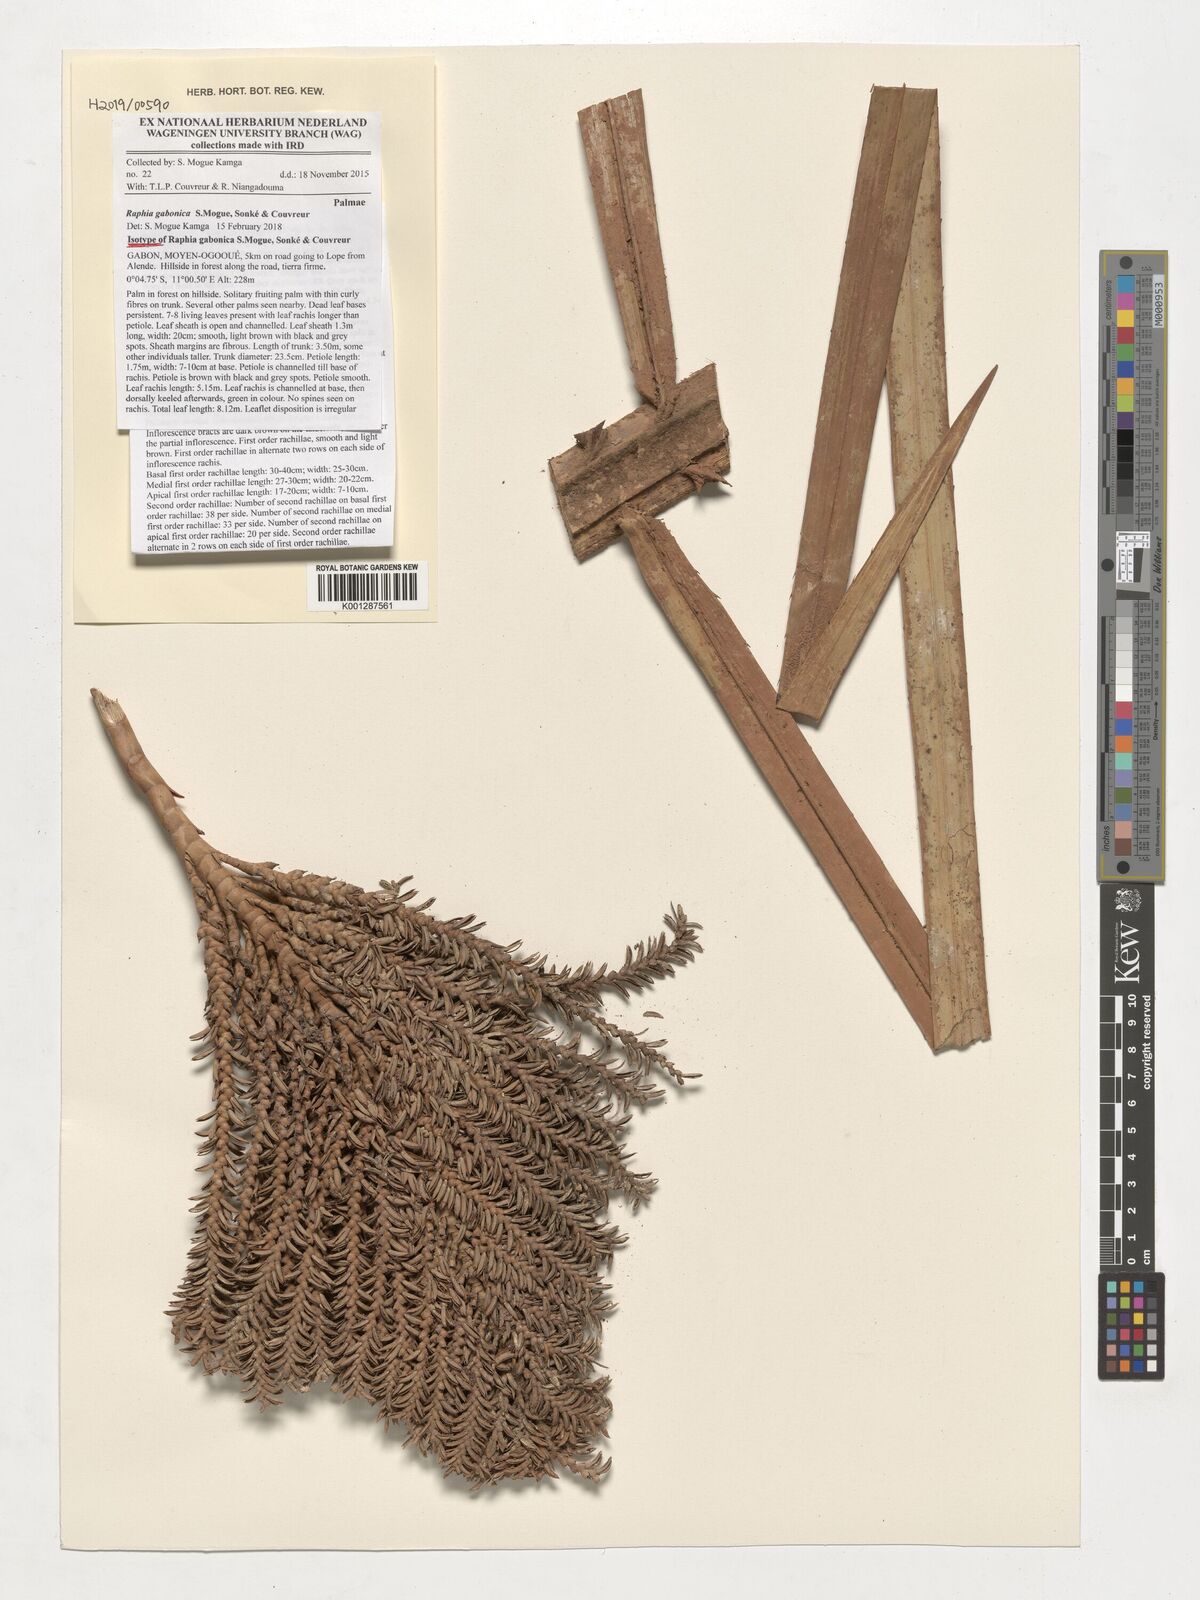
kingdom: Plantae
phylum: Tracheophyta
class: Liliopsida
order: Arecales
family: Arecaceae
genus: Raphia
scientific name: Raphia gabonica
